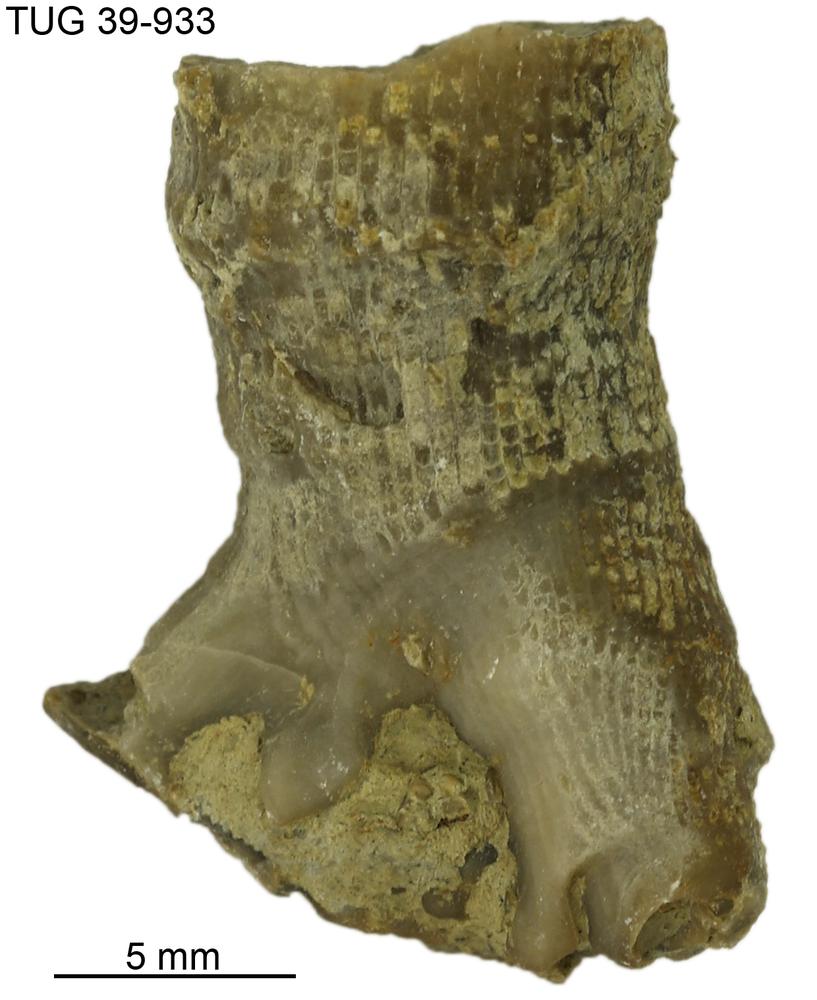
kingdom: Animalia
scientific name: Animalia
